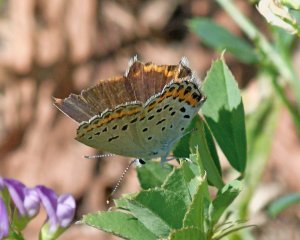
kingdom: Animalia
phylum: Arthropoda
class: Insecta
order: Lepidoptera
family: Lycaenidae
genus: Lycaeides
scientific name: Lycaeides melissa
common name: Melissa Blue
